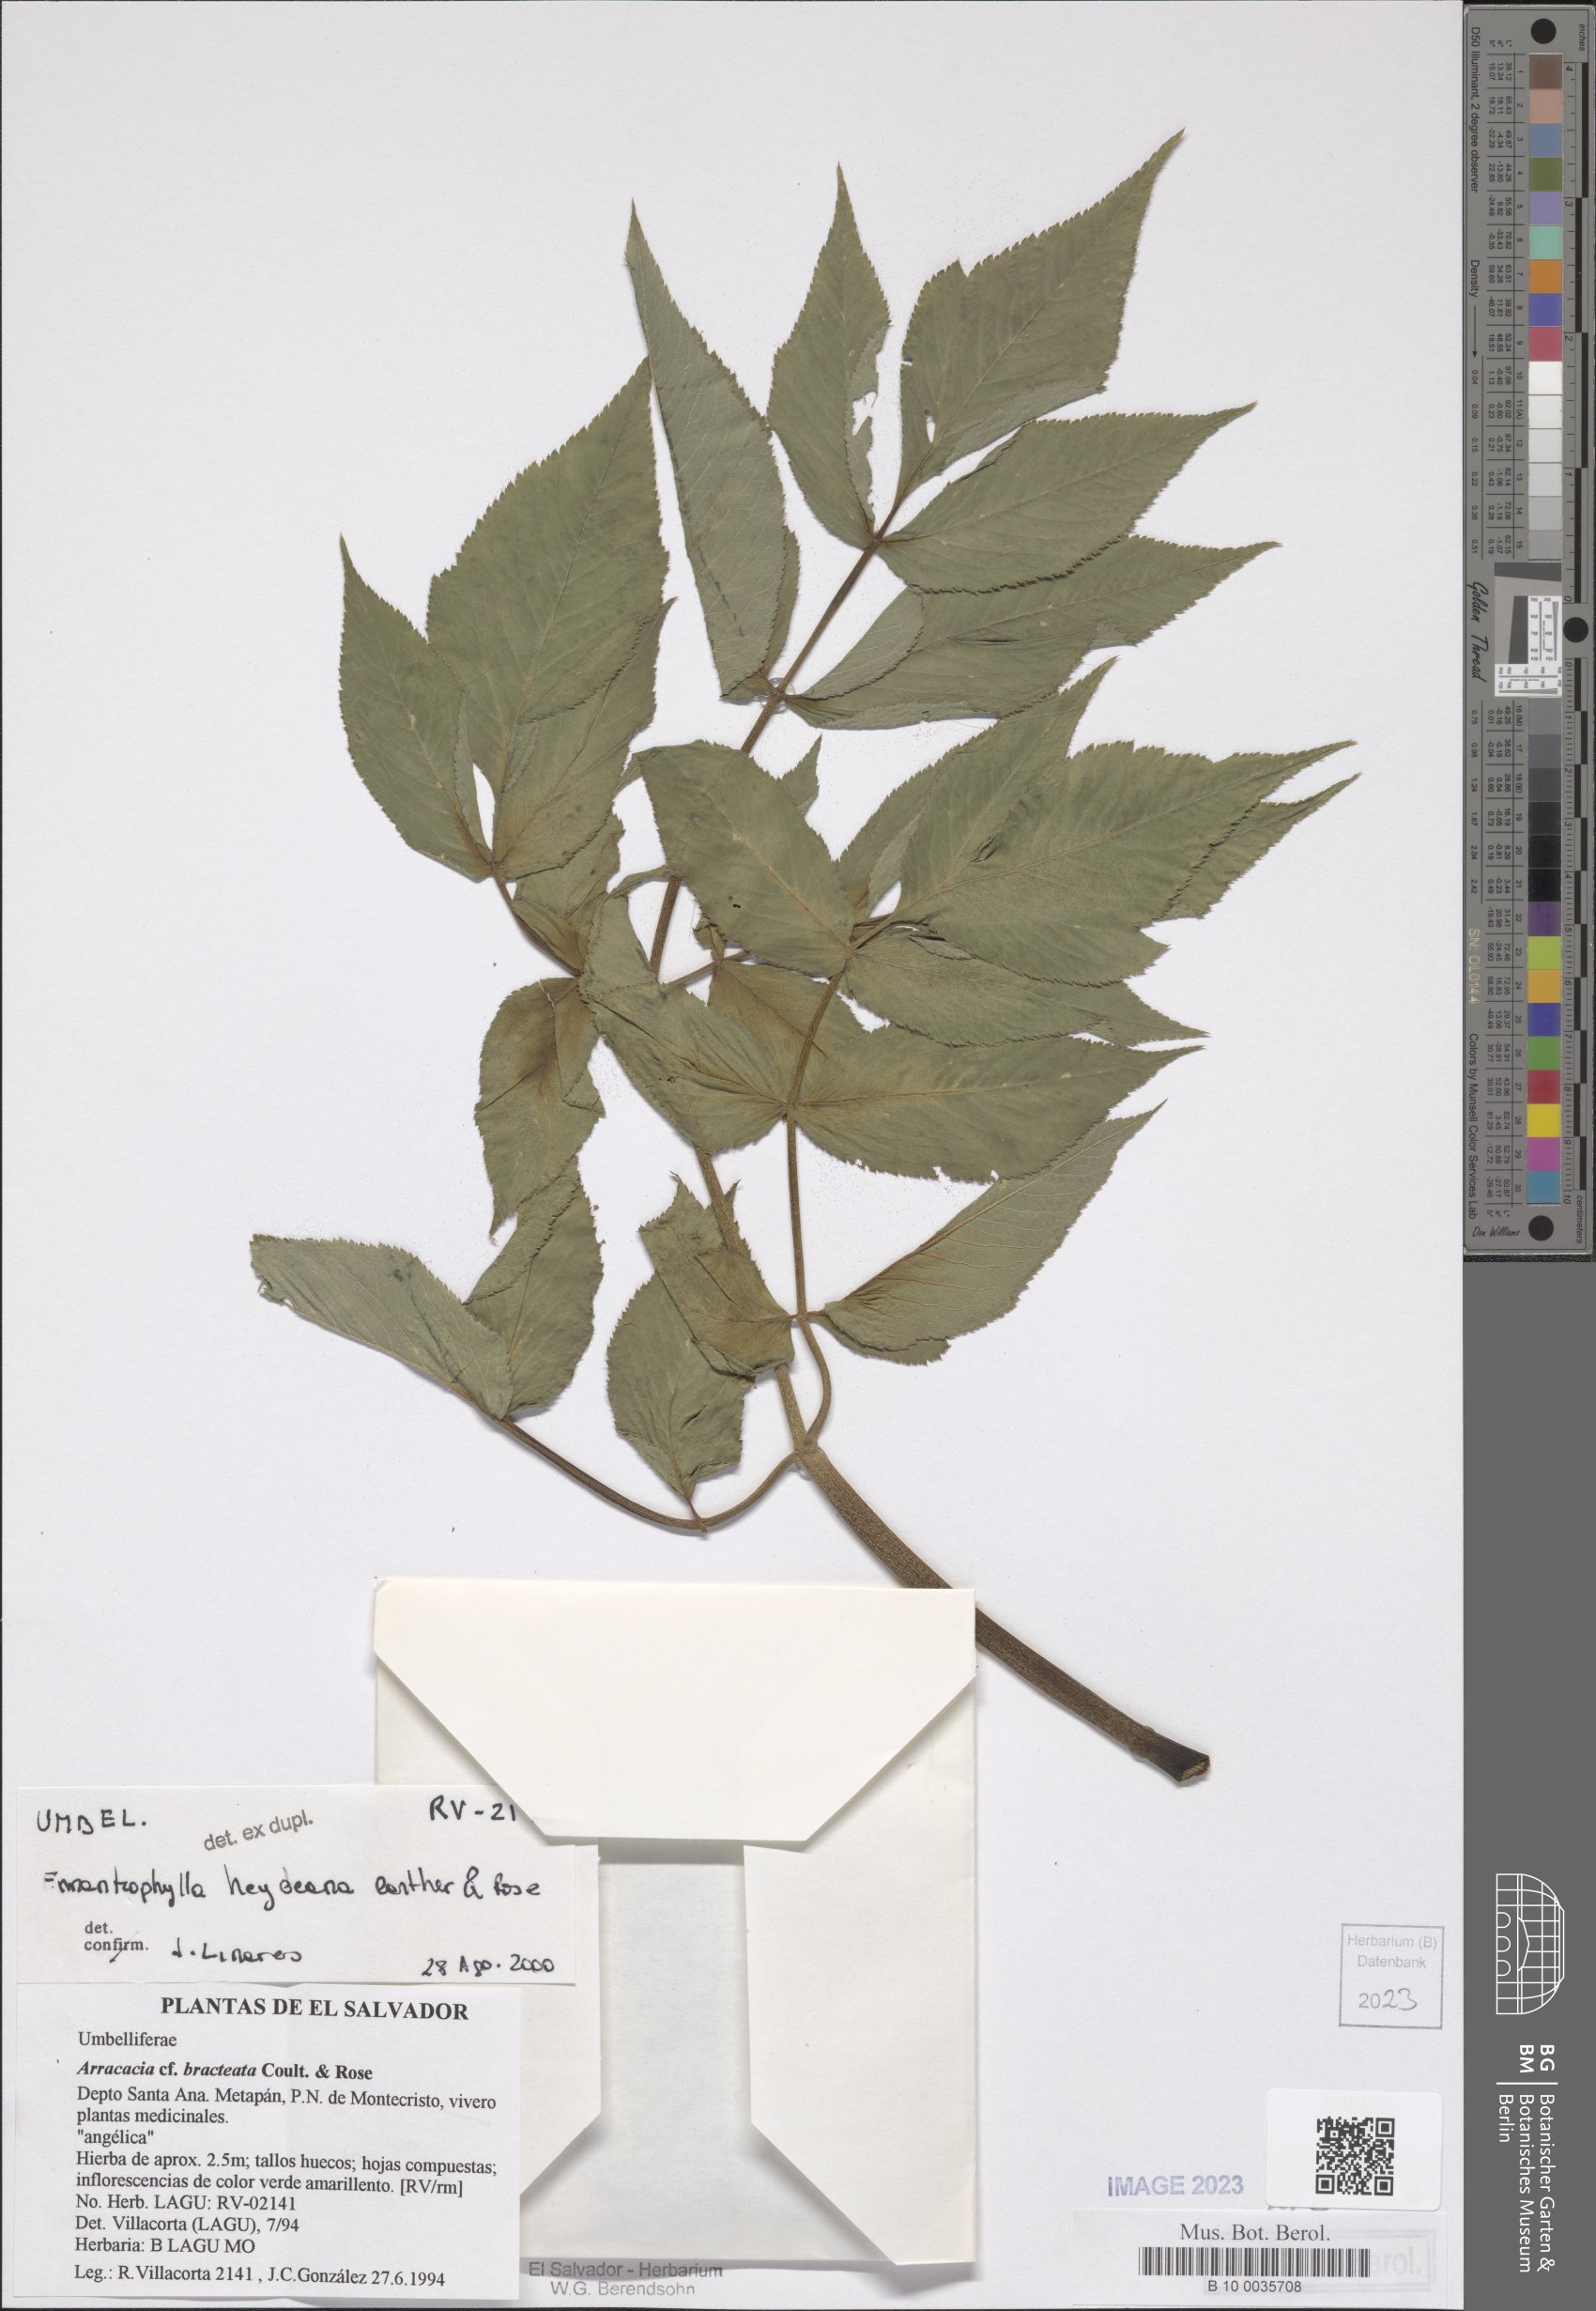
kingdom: Plantae
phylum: Tracheophyta
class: Magnoliopsida
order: Apiales
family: Apiaceae
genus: Enantiophylla
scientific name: Enantiophylla heydeana
